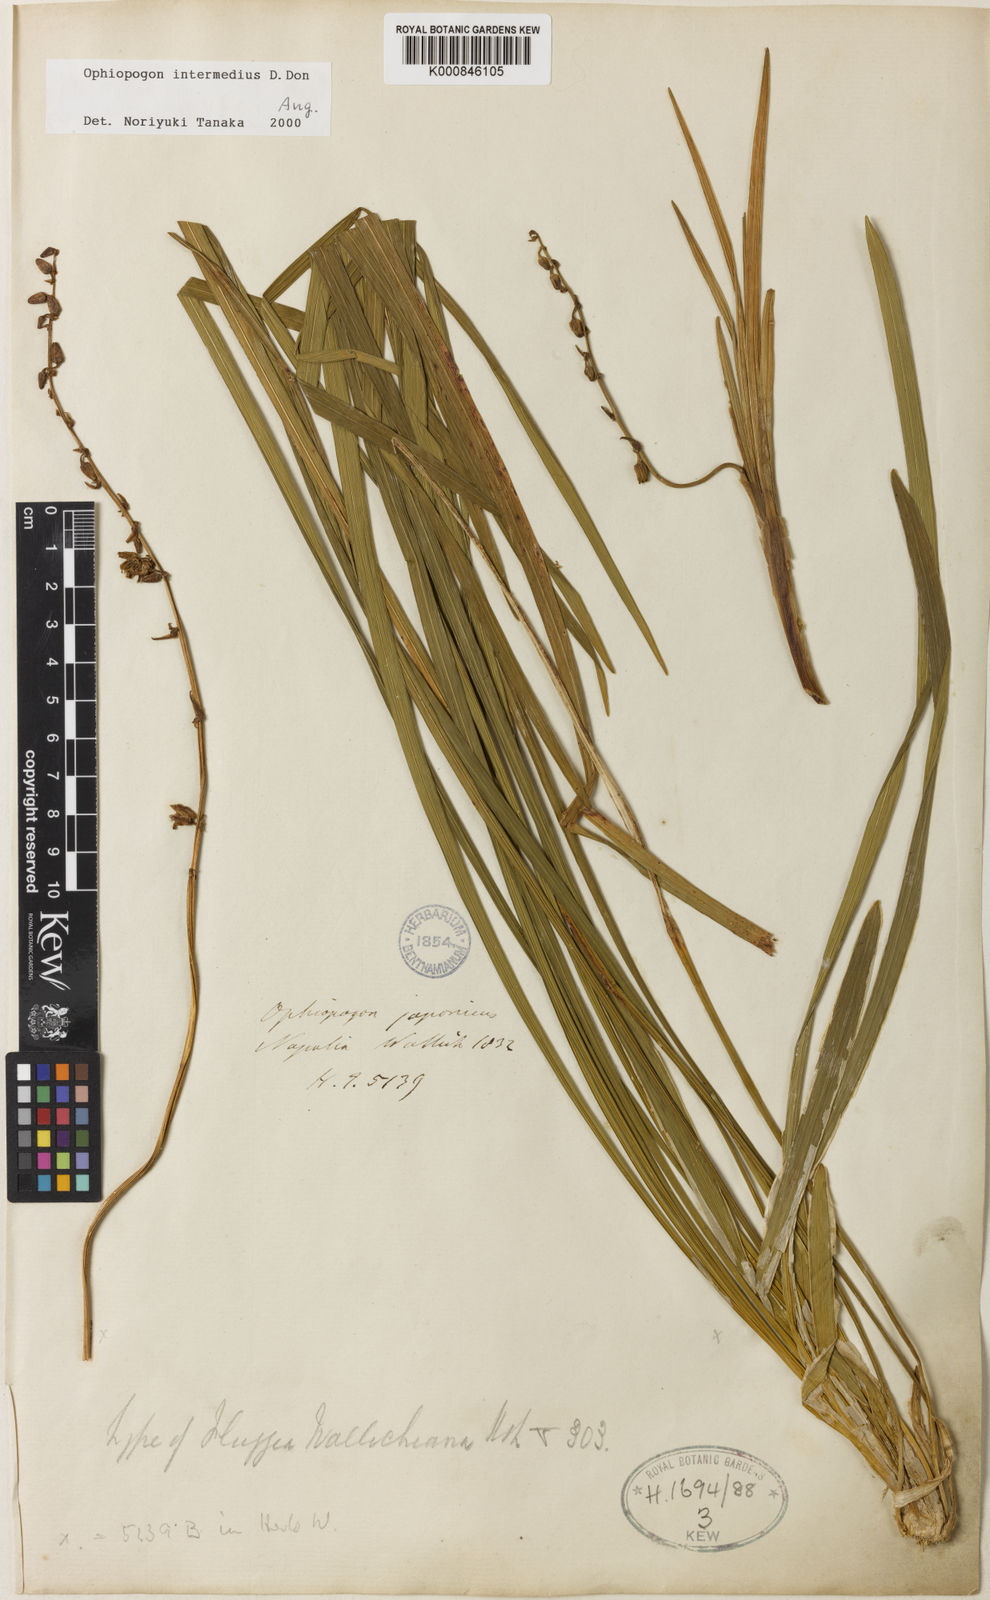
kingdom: Plantae
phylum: Tracheophyta
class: Liliopsida
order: Asparagales
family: Asparagaceae
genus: Ophiopogon
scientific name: Ophiopogon
